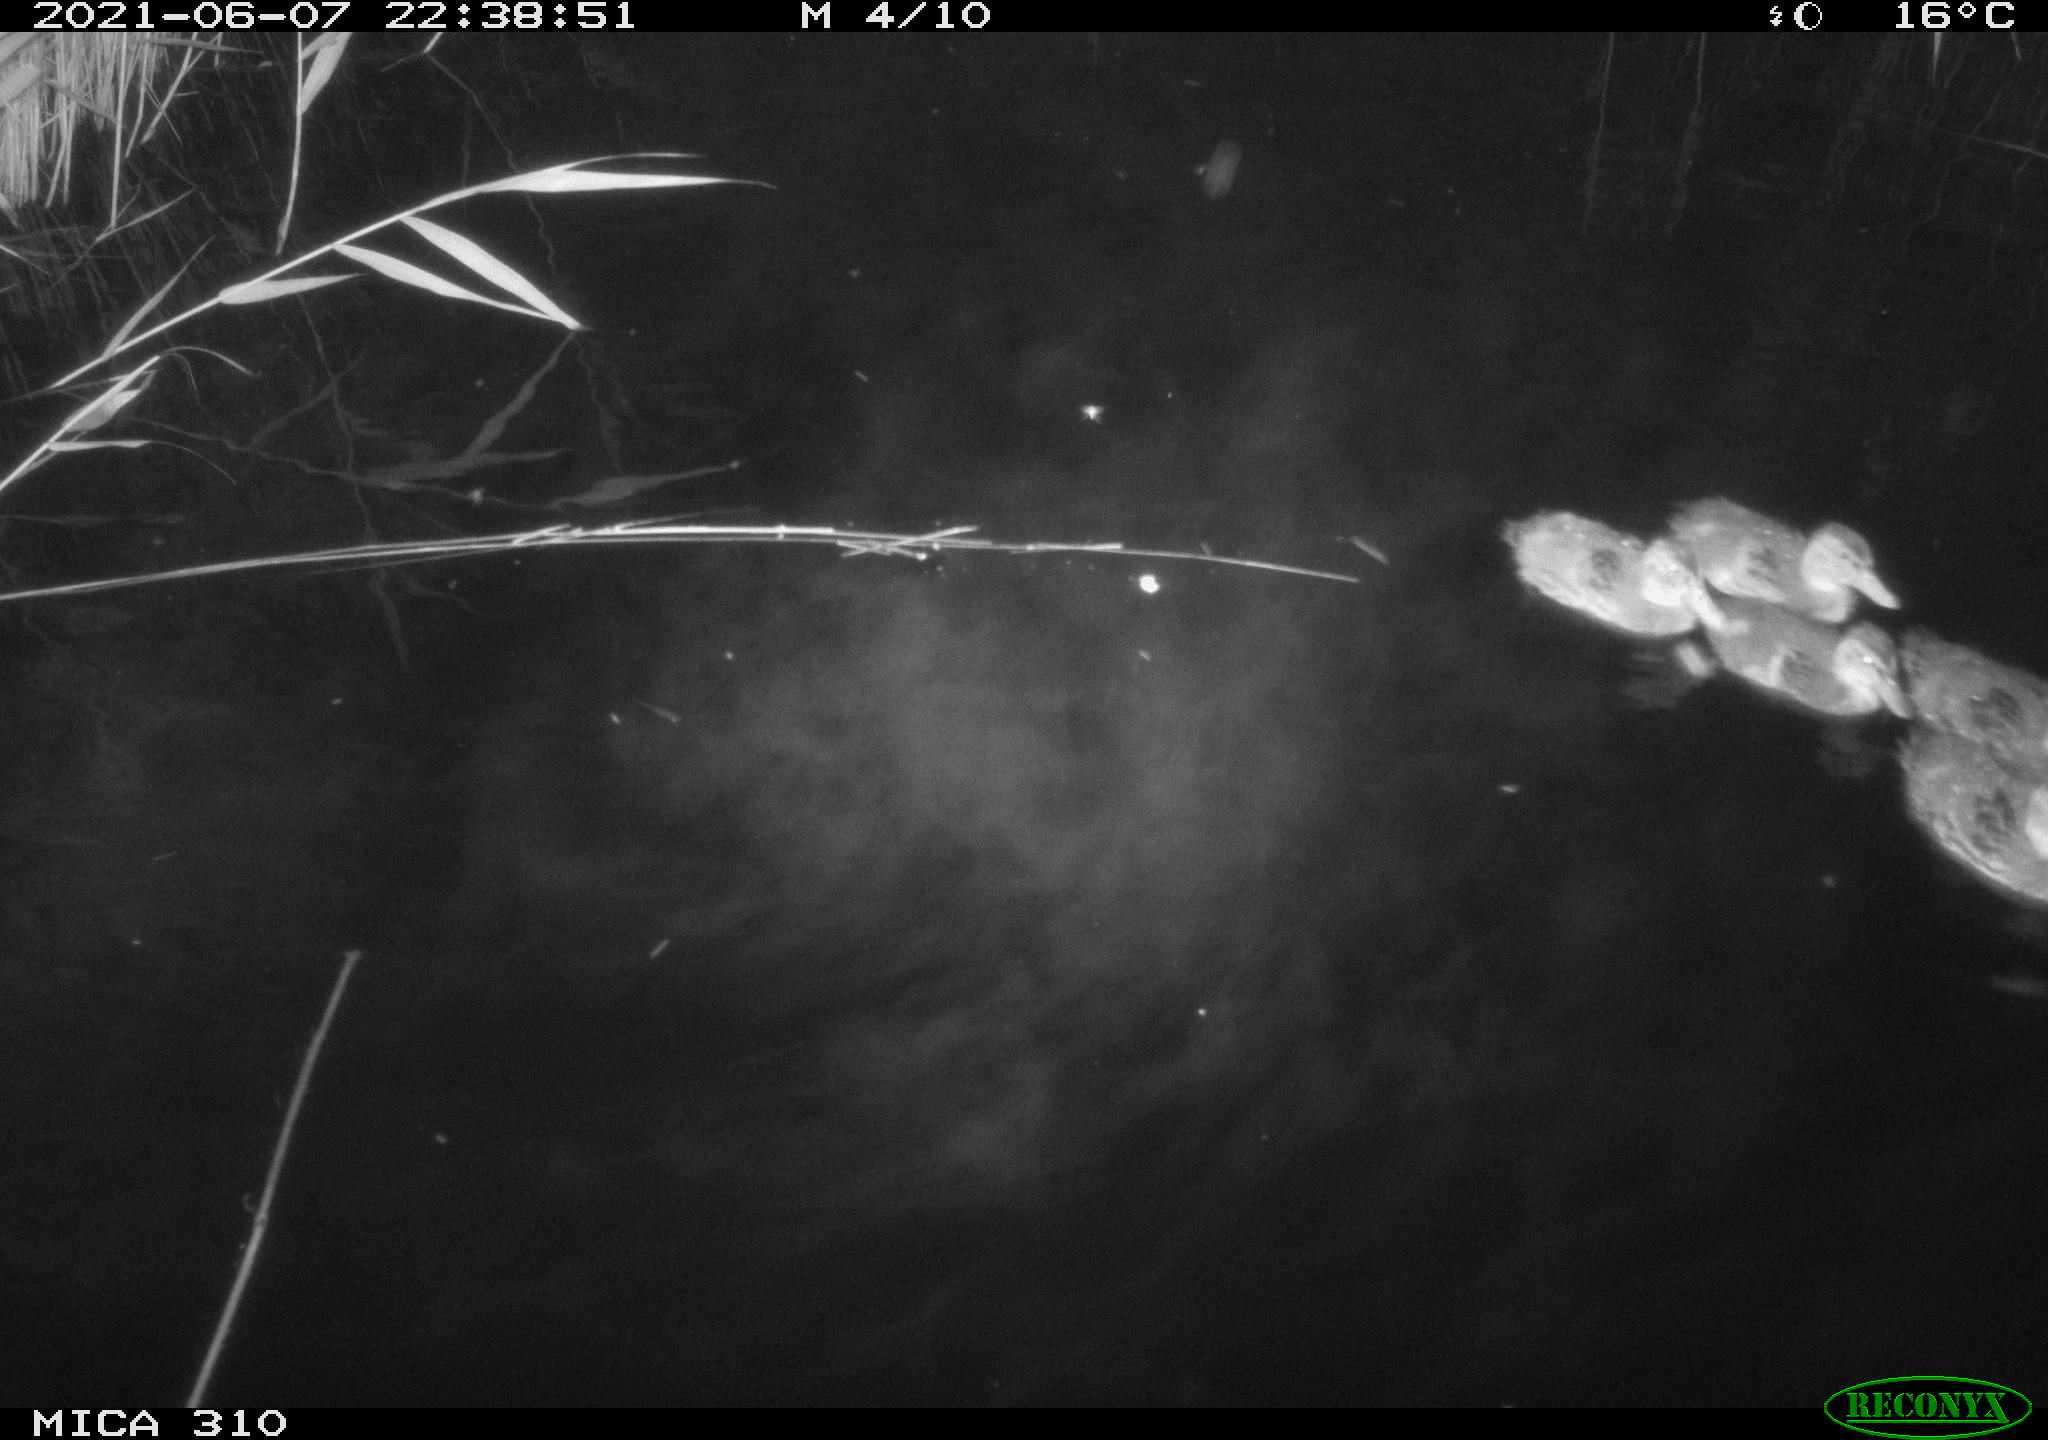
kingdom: Animalia
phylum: Chordata
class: Aves
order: Anseriformes
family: Anatidae
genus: Anas
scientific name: Anas
